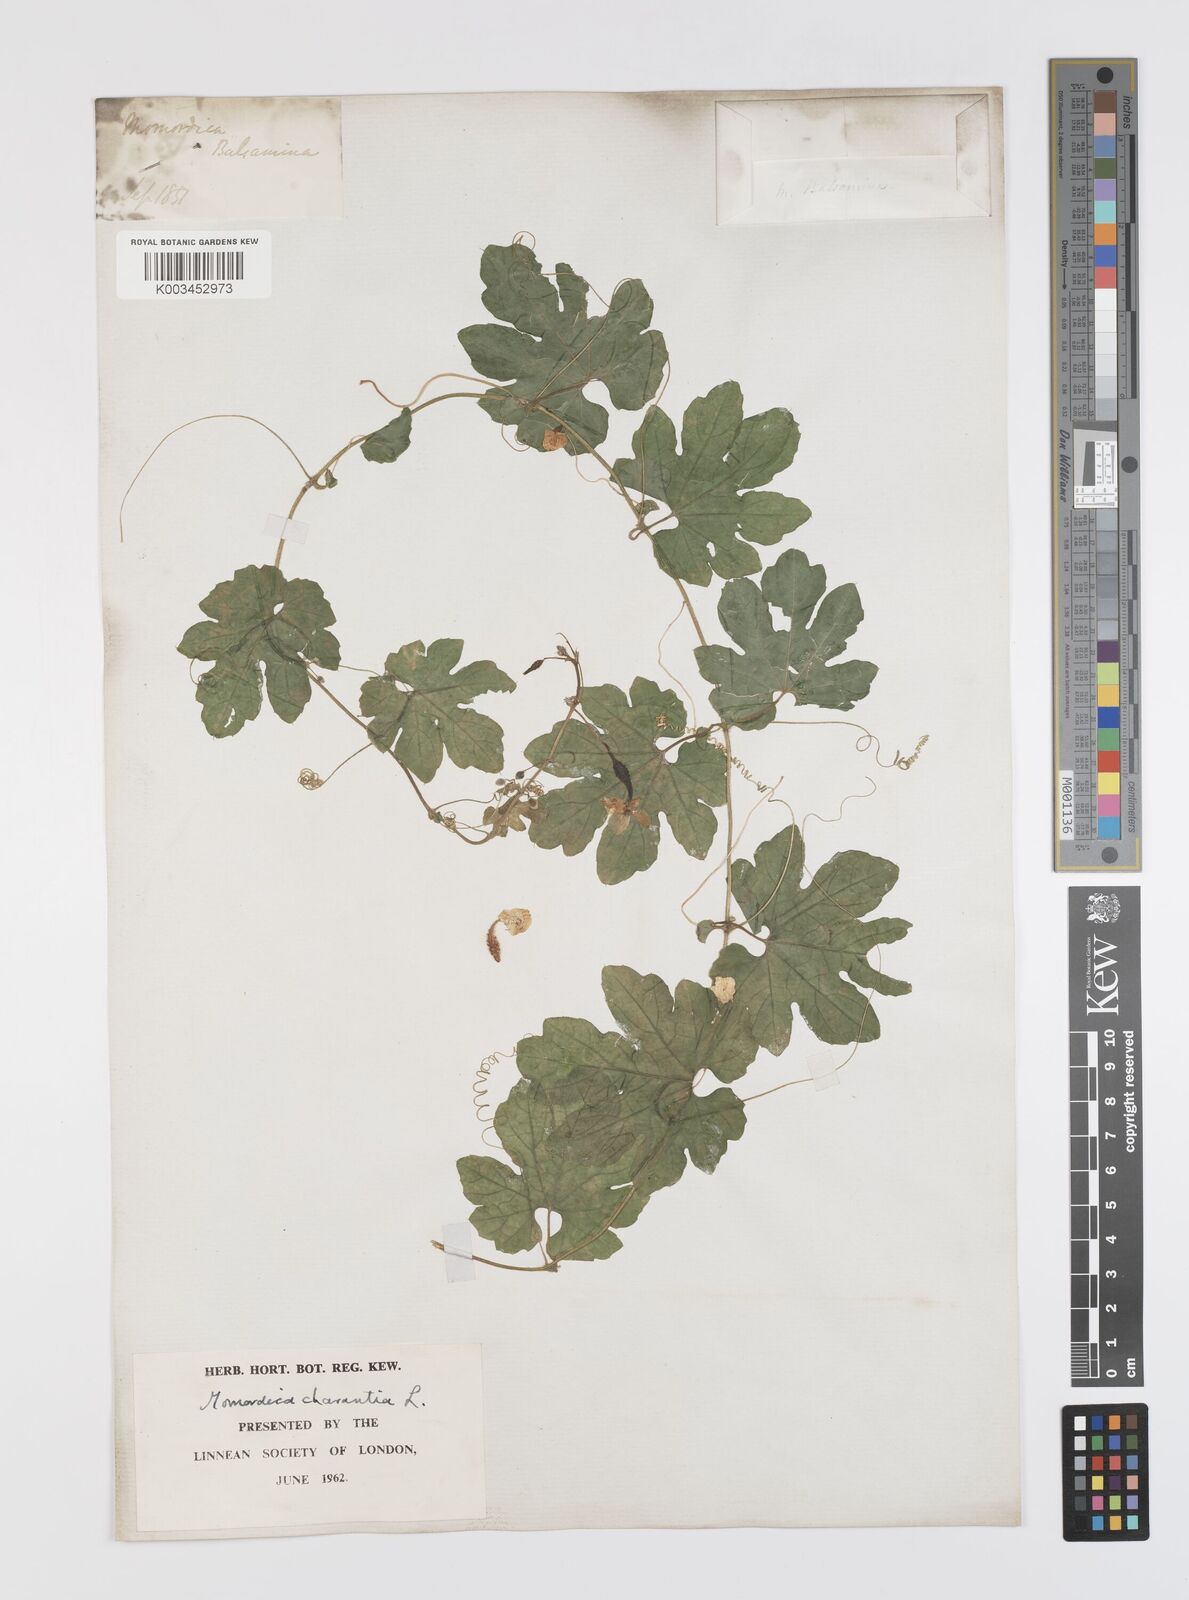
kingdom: Plantae
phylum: Tracheophyta
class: Magnoliopsida
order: Cucurbitales
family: Cucurbitaceae
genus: Momordica
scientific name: Momordica charantia
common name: Balsampear
